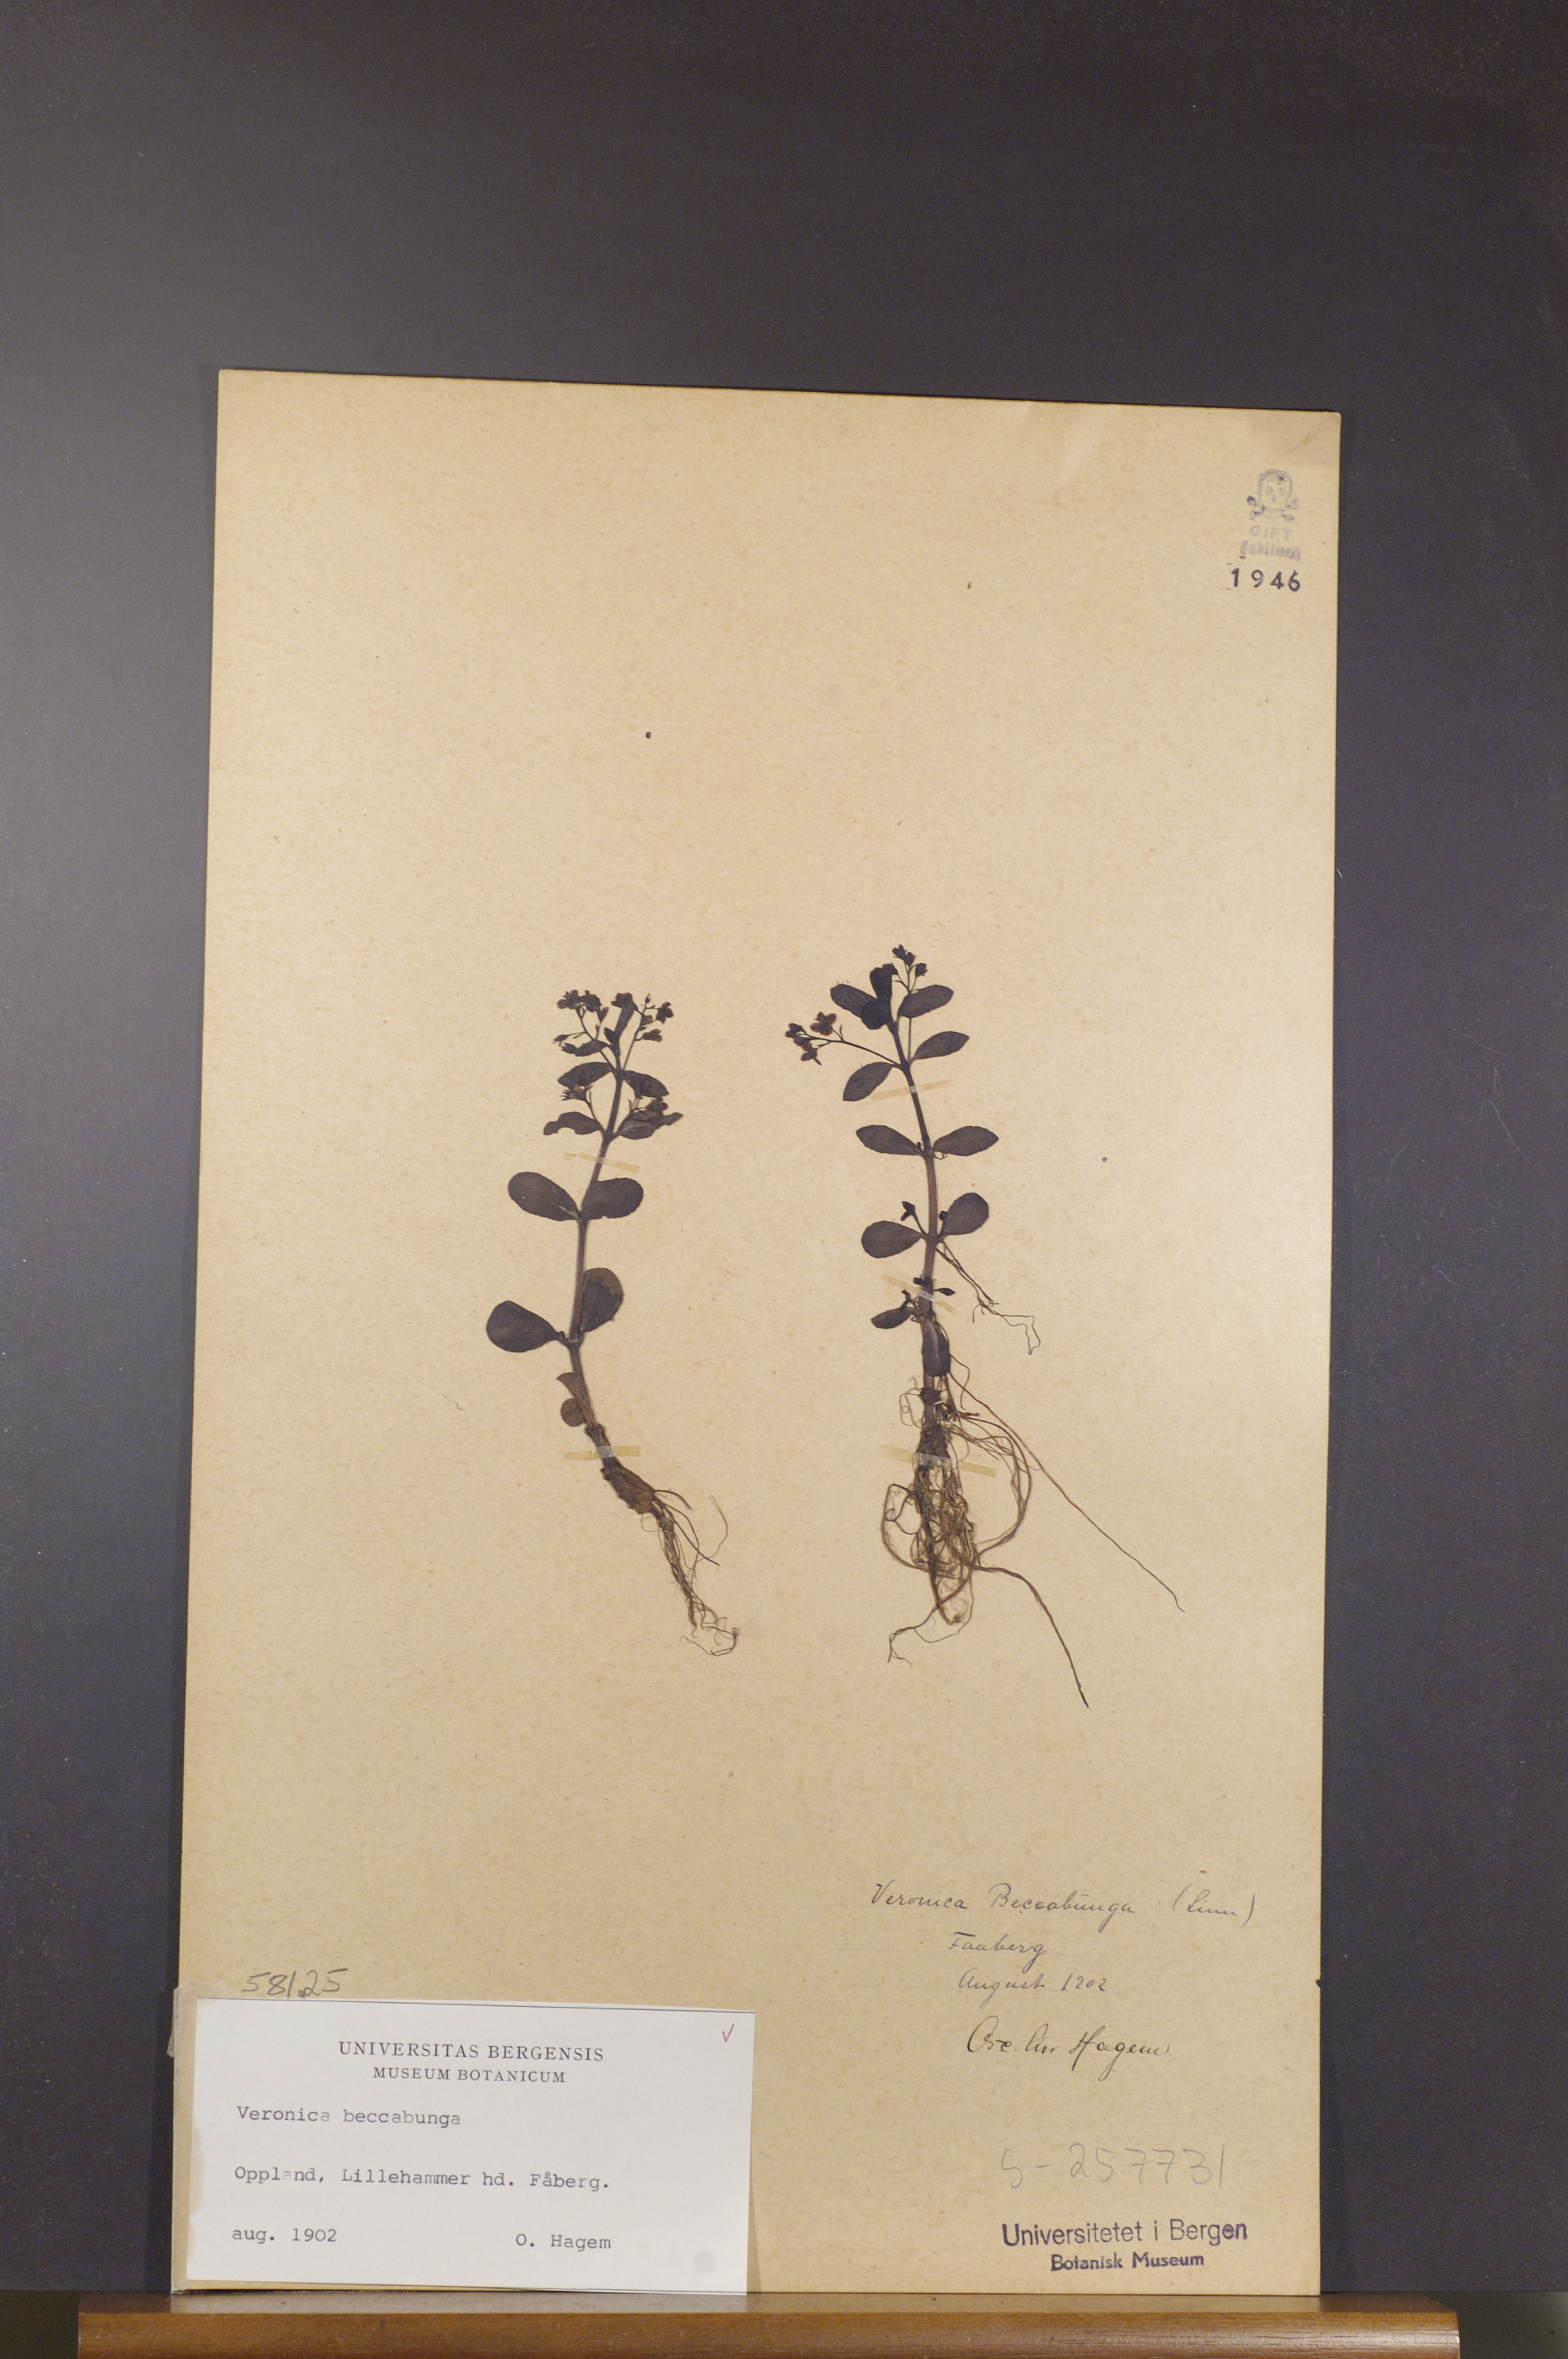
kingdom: Plantae
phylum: Tracheophyta
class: Magnoliopsida
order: Lamiales
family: Plantaginaceae
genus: Veronica
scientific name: Veronica beccabunga
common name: Brooklime
